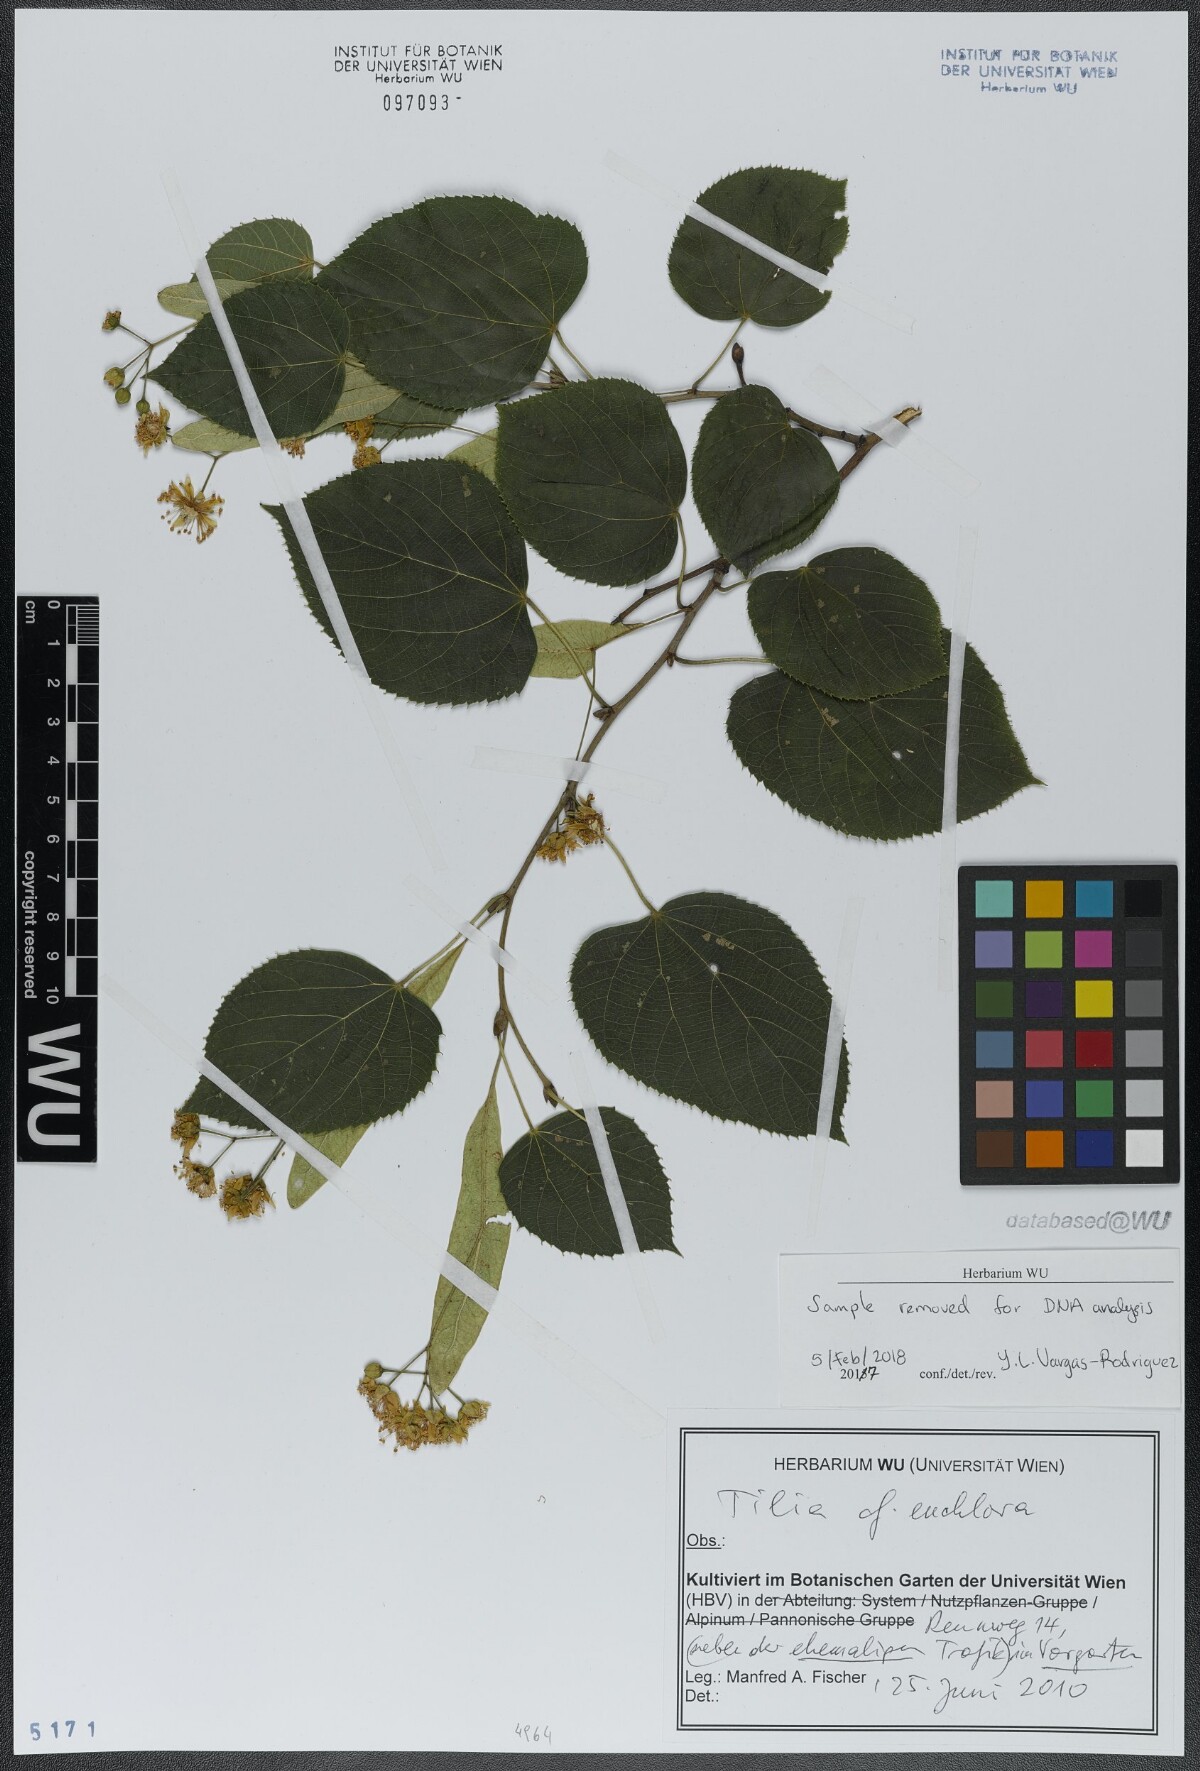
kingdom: Plantae
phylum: Tracheophyta
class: Magnoliopsida
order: Malvales
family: Malvaceae
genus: Tilia
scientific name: Tilia euchlora
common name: Caucasian lime
